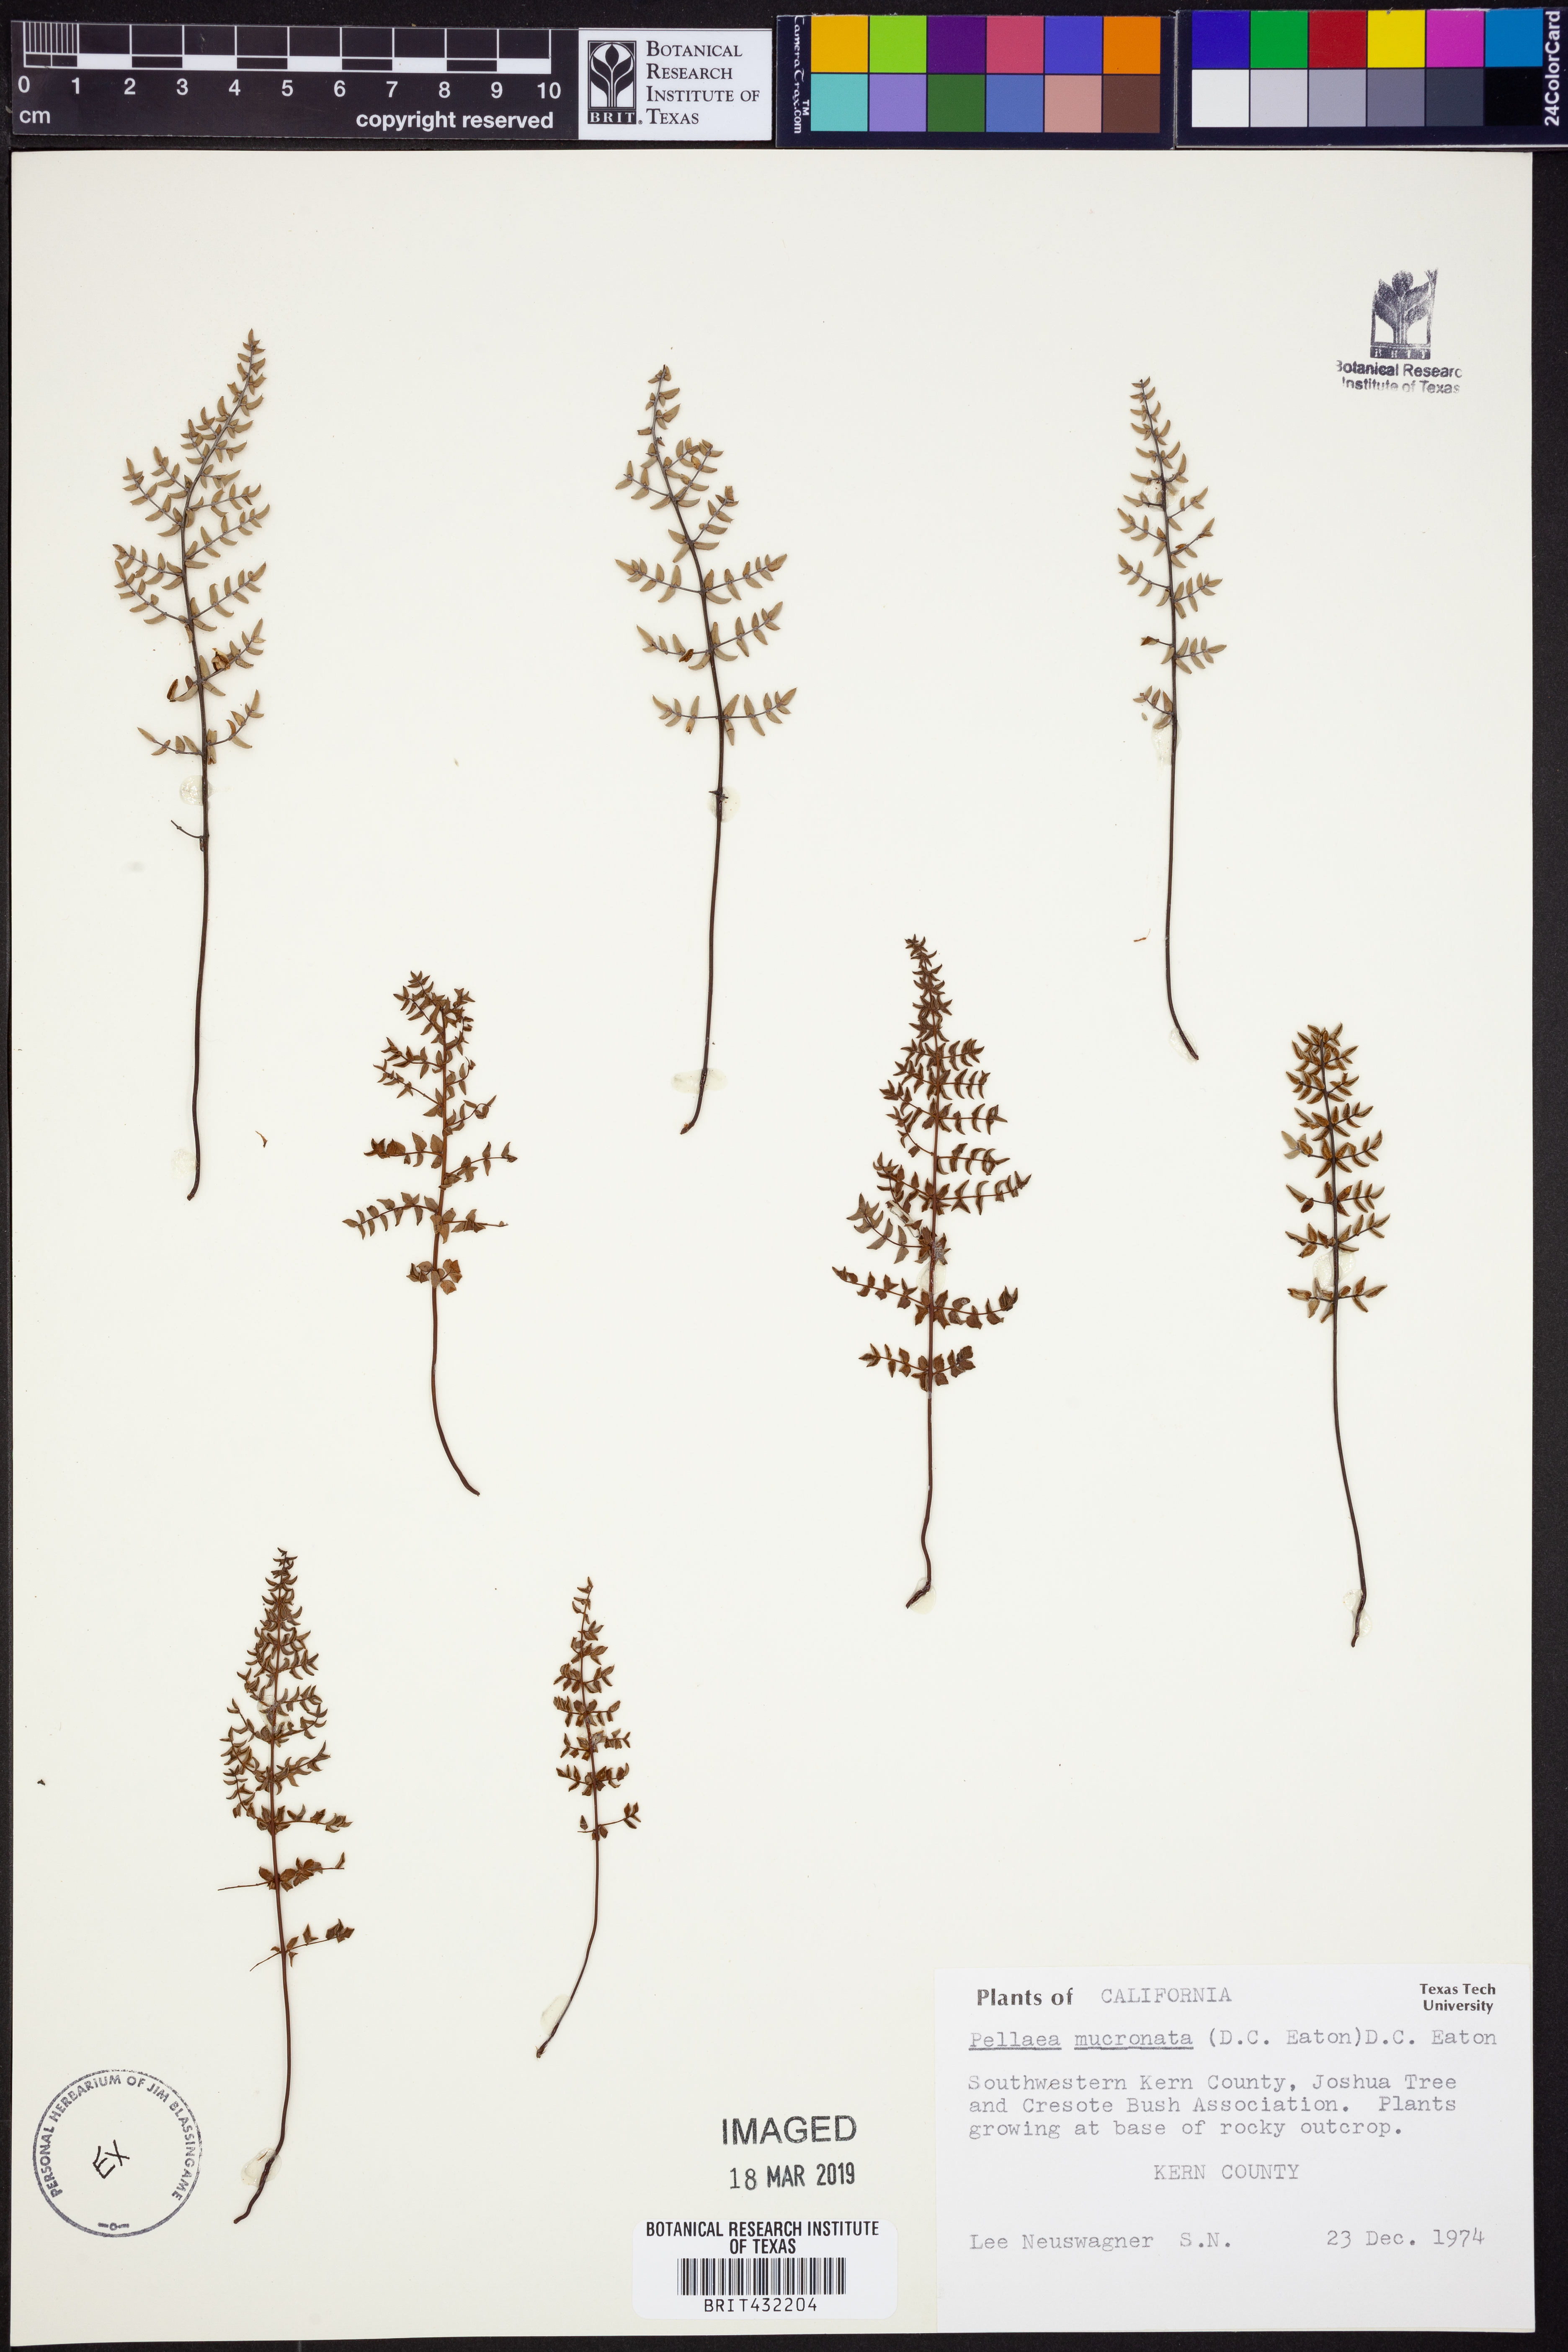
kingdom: Plantae
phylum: Tracheophyta
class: Polypodiopsida
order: Polypodiales
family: Pteridaceae
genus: Pellaea
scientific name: Pellaea atropurpurea
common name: Hairy cliffbrake
